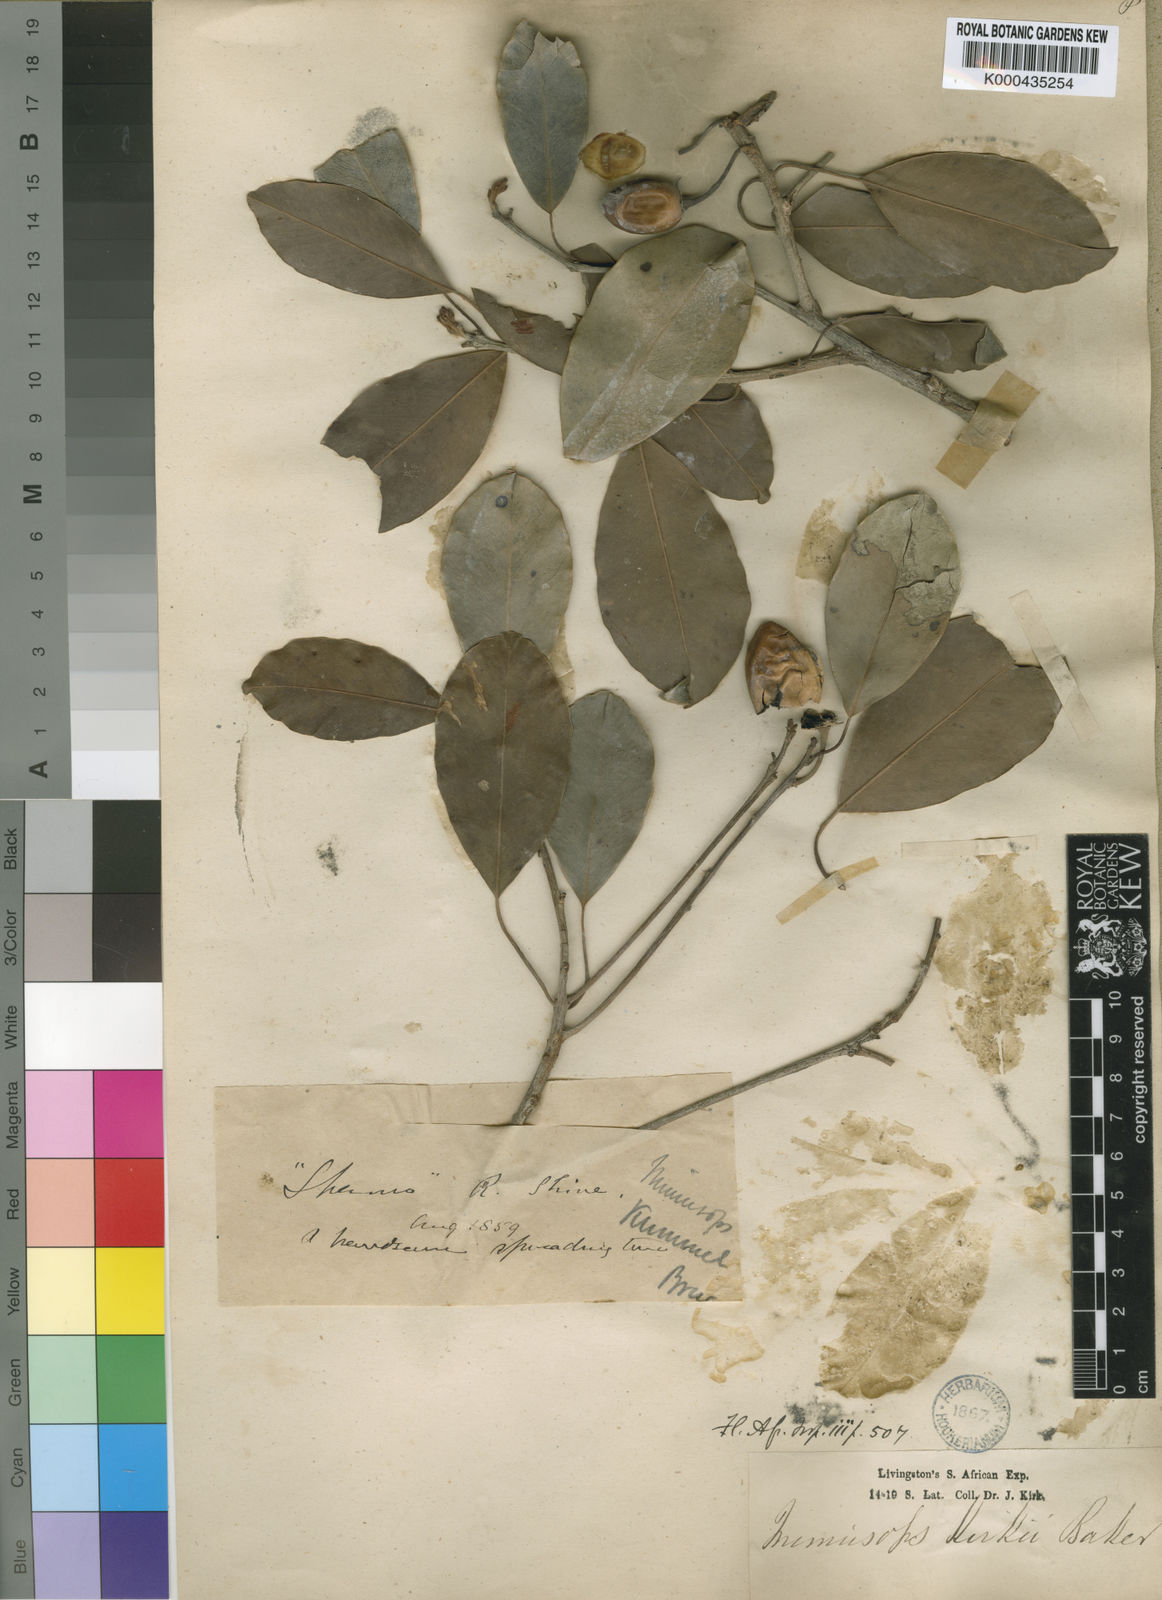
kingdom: Plantae
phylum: Tracheophyta
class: Magnoliopsida
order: Ericales
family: Sapotaceae
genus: Mimusops
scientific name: Mimusops
